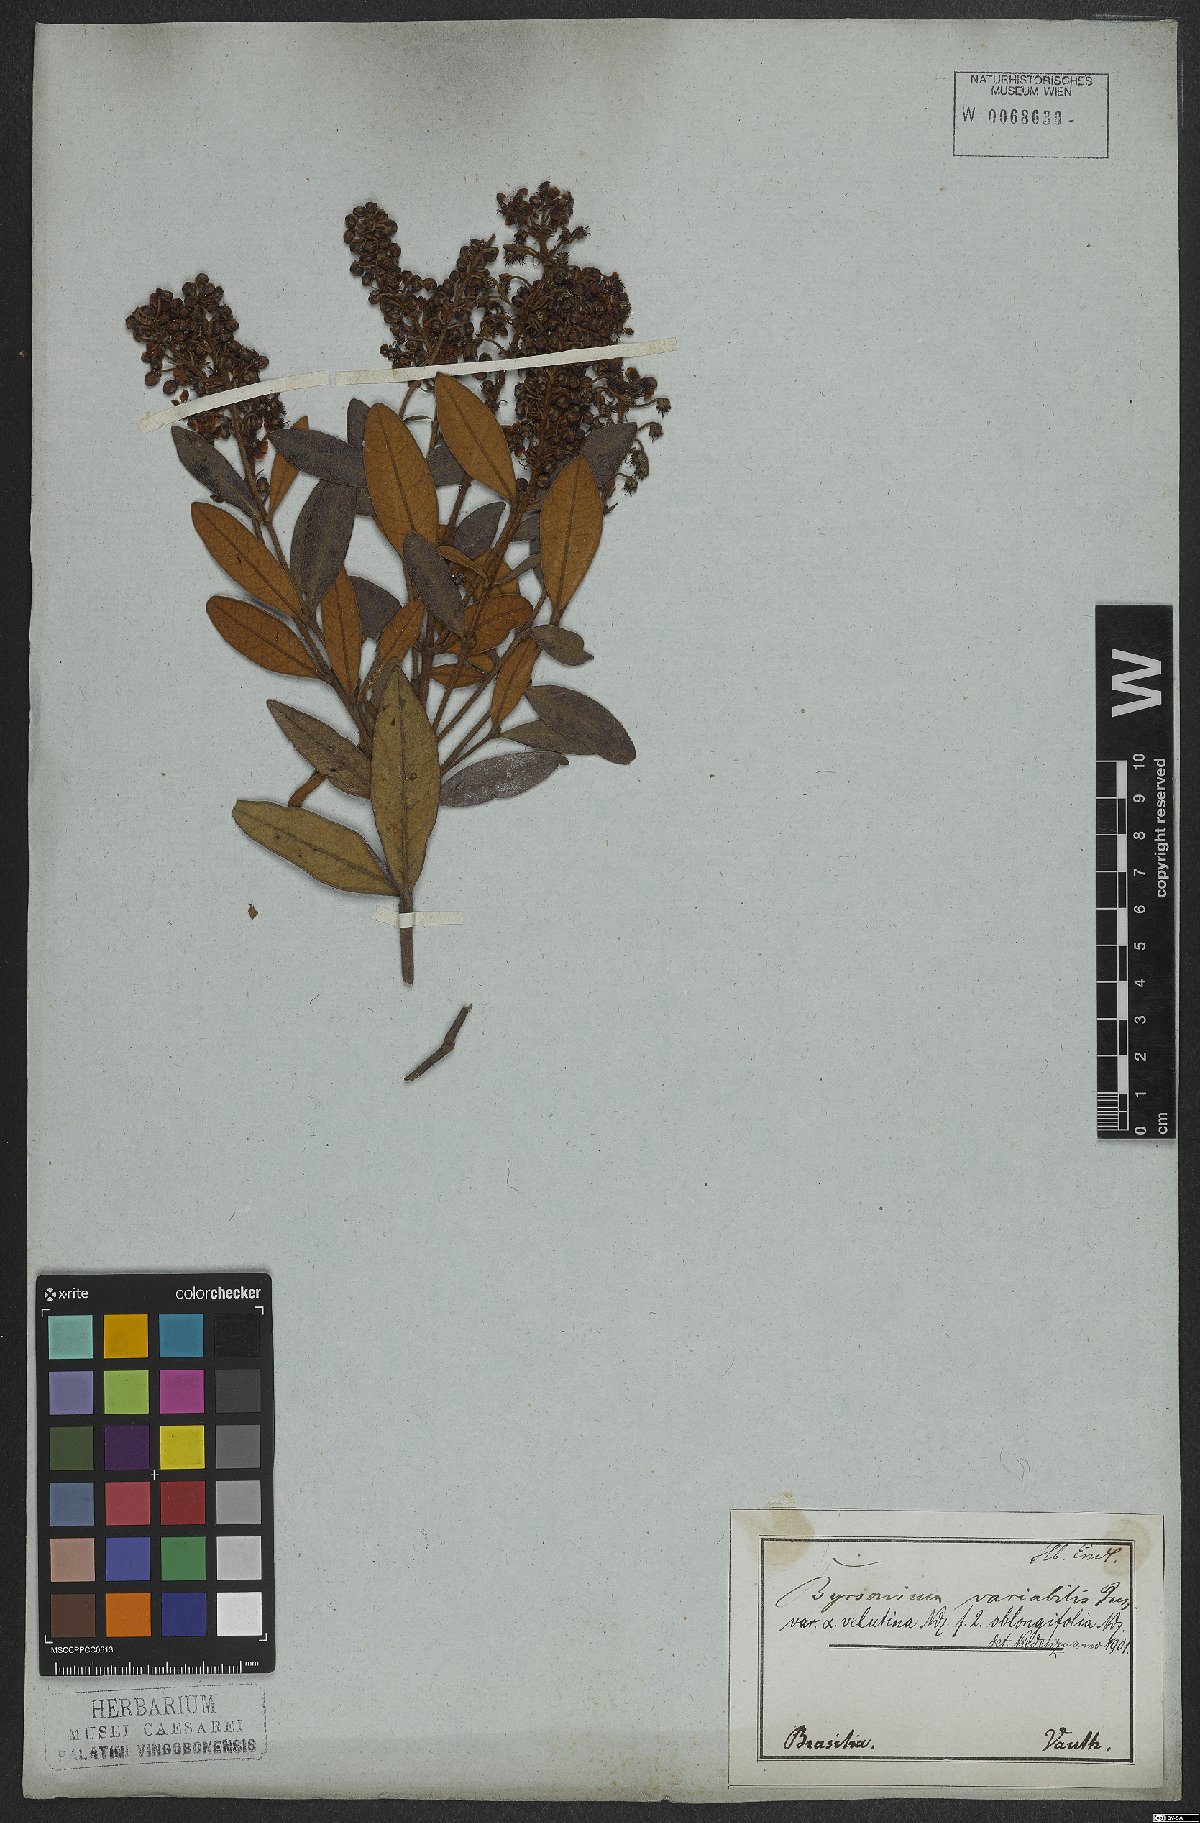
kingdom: Plantae
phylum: Tracheophyta
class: Magnoliopsida
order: Malpighiales
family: Malpighiaceae
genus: Byrsonima
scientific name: Byrsonima variabilis
